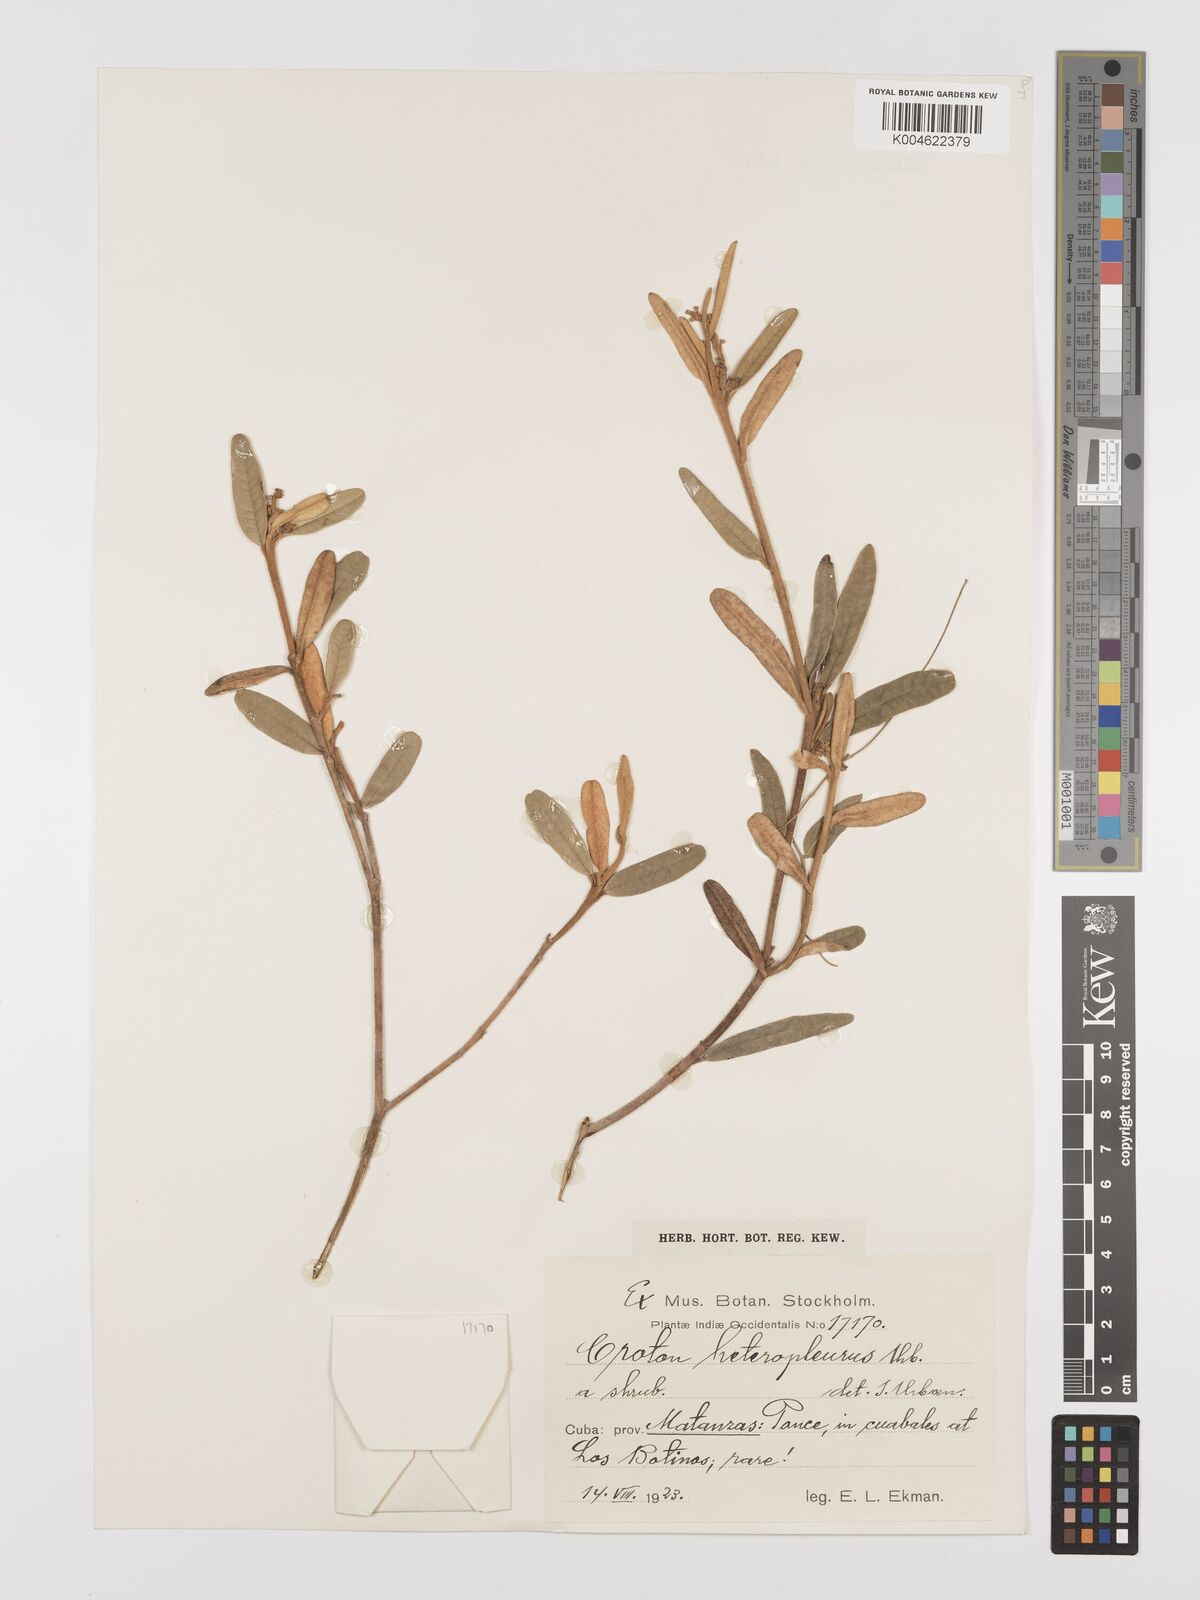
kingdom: Plantae
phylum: Tracheophyta
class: Magnoliopsida
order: Malpighiales
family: Euphorbiaceae
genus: Croton
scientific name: Croton monogynus
